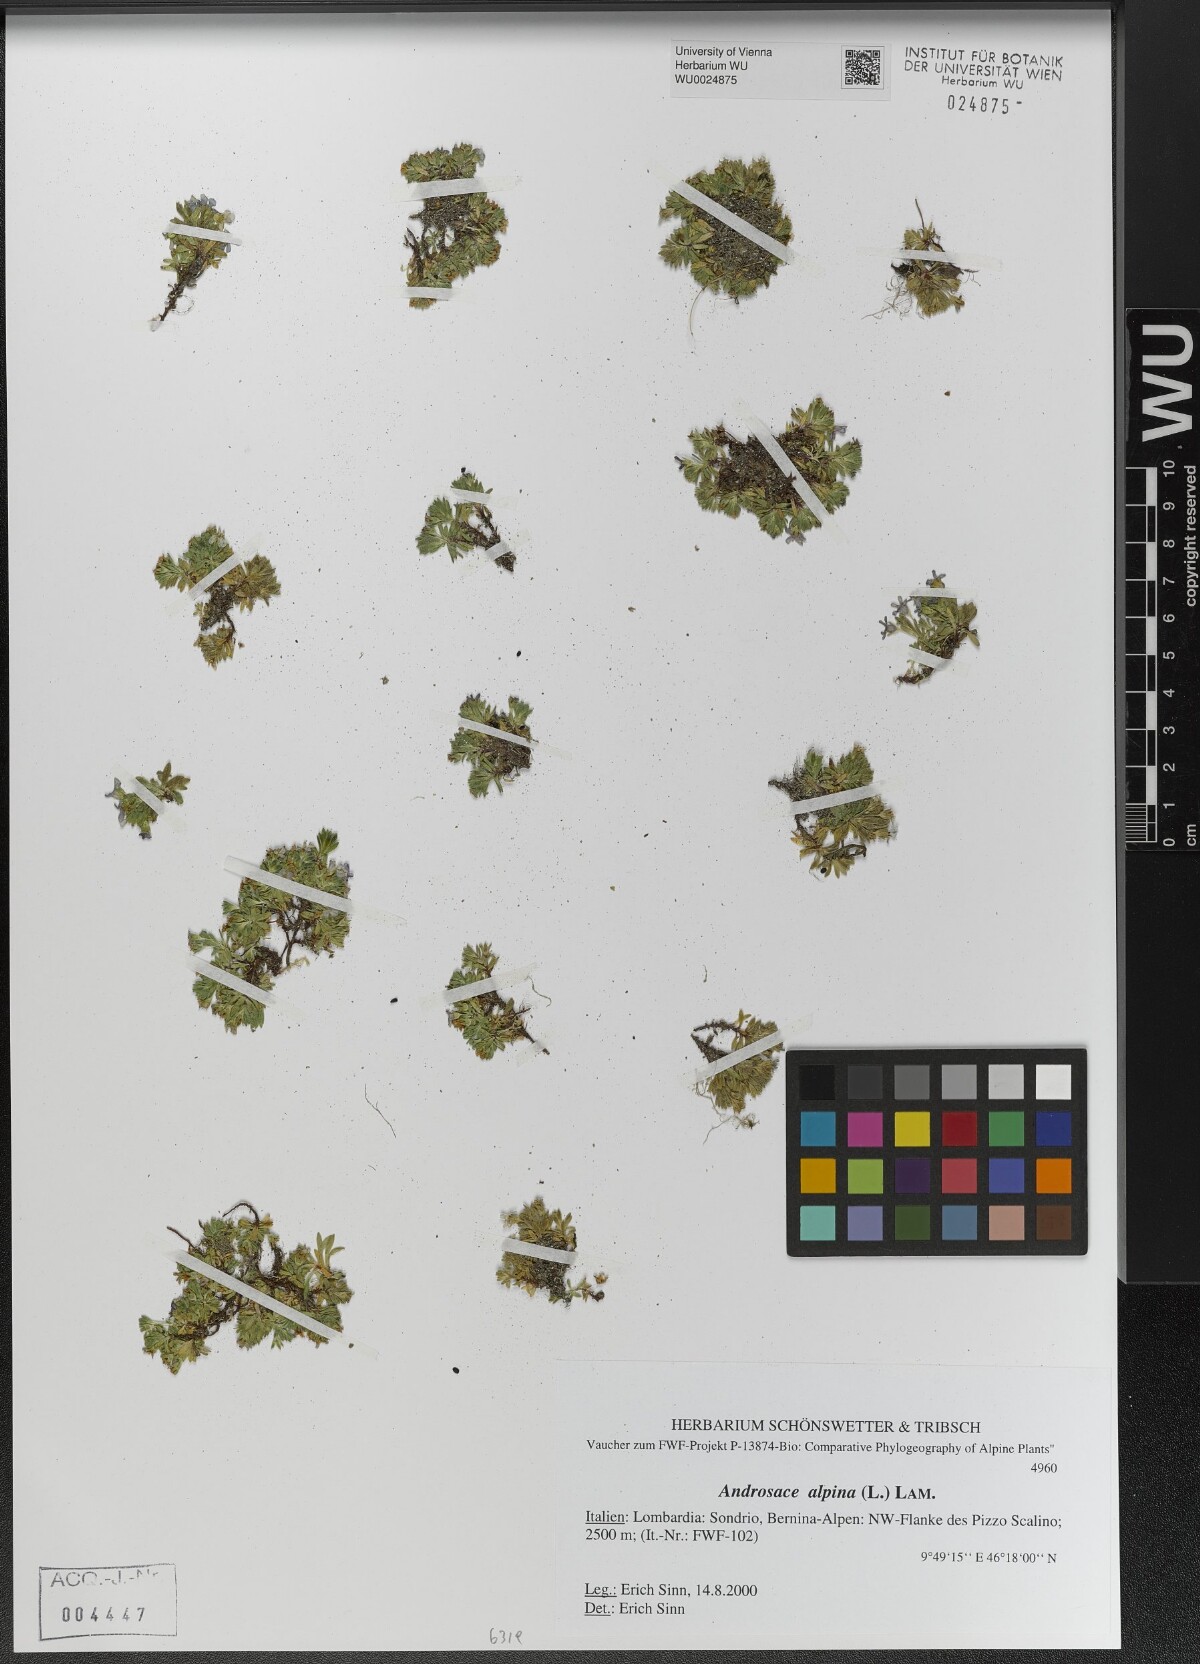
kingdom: Plantae
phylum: Tracheophyta
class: Magnoliopsida
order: Ericales
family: Primulaceae
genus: Androsace
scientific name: Androsace alpina
